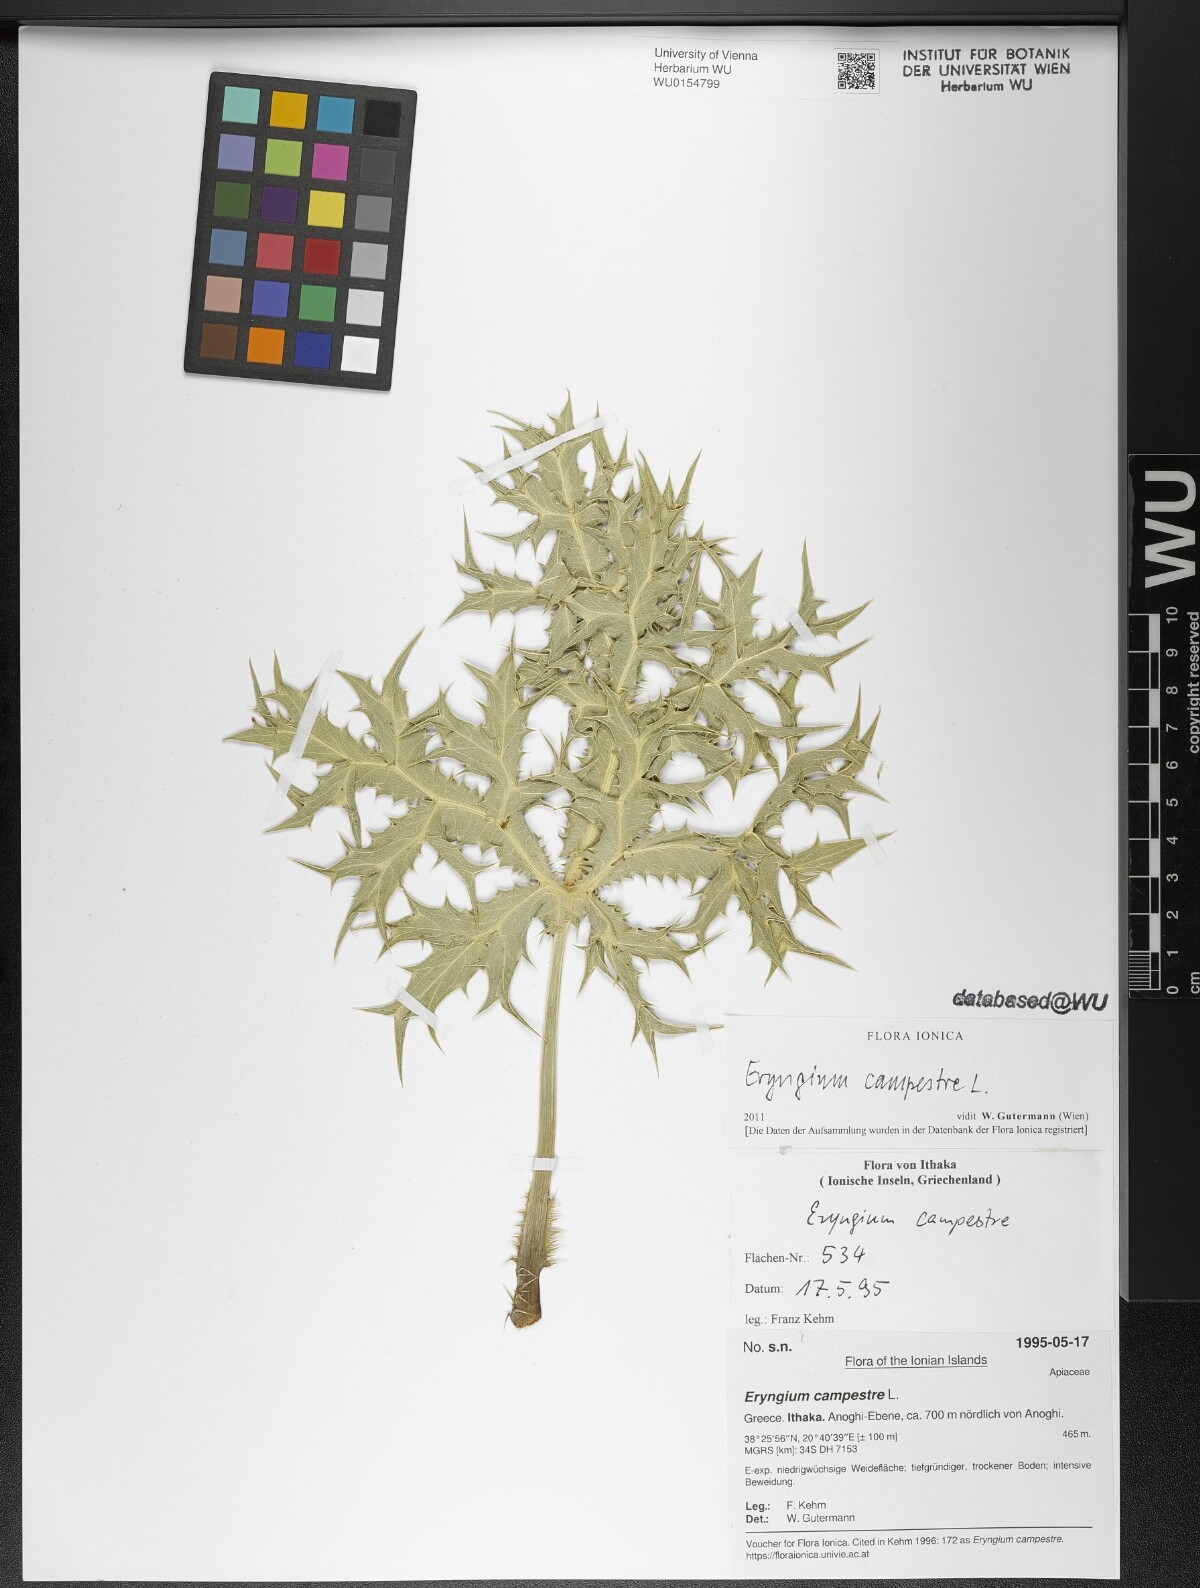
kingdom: Plantae
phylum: Tracheophyta
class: Magnoliopsida
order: Apiales
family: Apiaceae
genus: Eryngium
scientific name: Eryngium campestre
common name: Field eryngo
